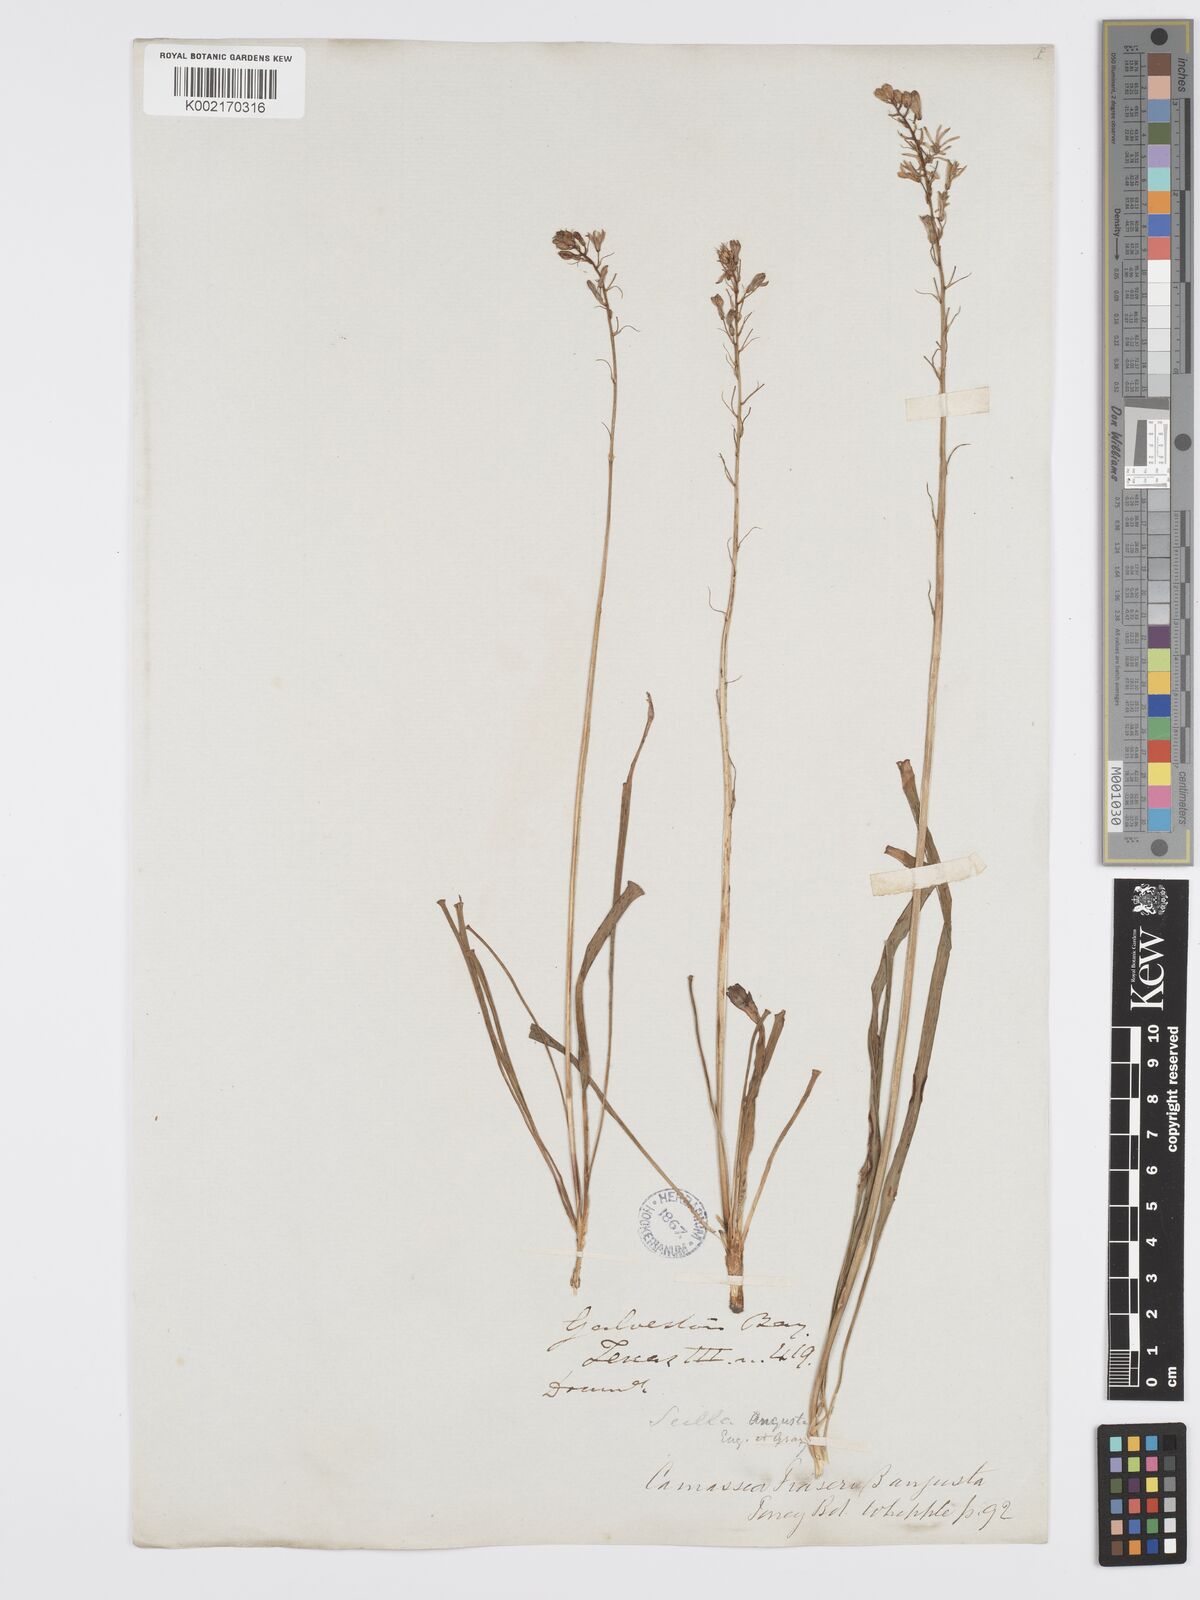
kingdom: Plantae
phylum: Tracheophyta
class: Liliopsida
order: Asparagales
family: Asparagaceae
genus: Camassia
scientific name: Camassia scilloides
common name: Wild hyacinth
